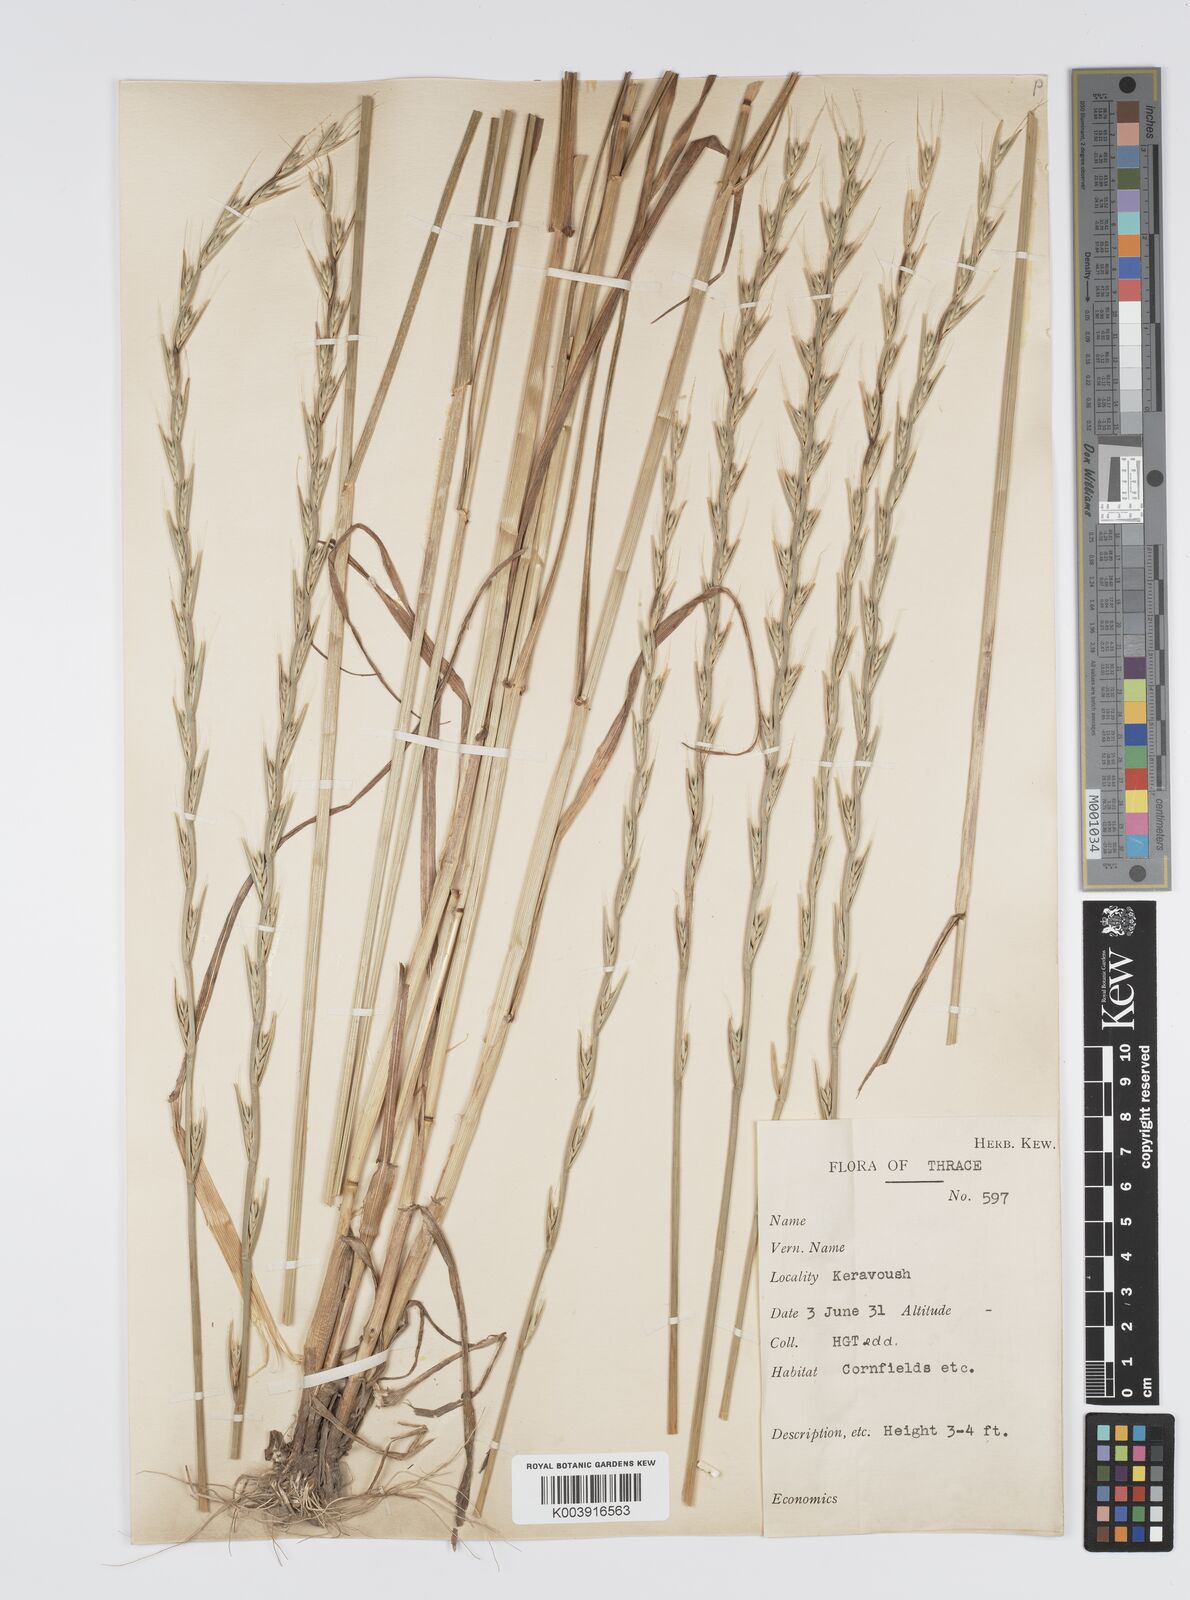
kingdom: Plantae
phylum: Tracheophyta
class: Liliopsida
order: Poales
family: Poaceae
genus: Lolium
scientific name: Lolium temulentum
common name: Darnel
